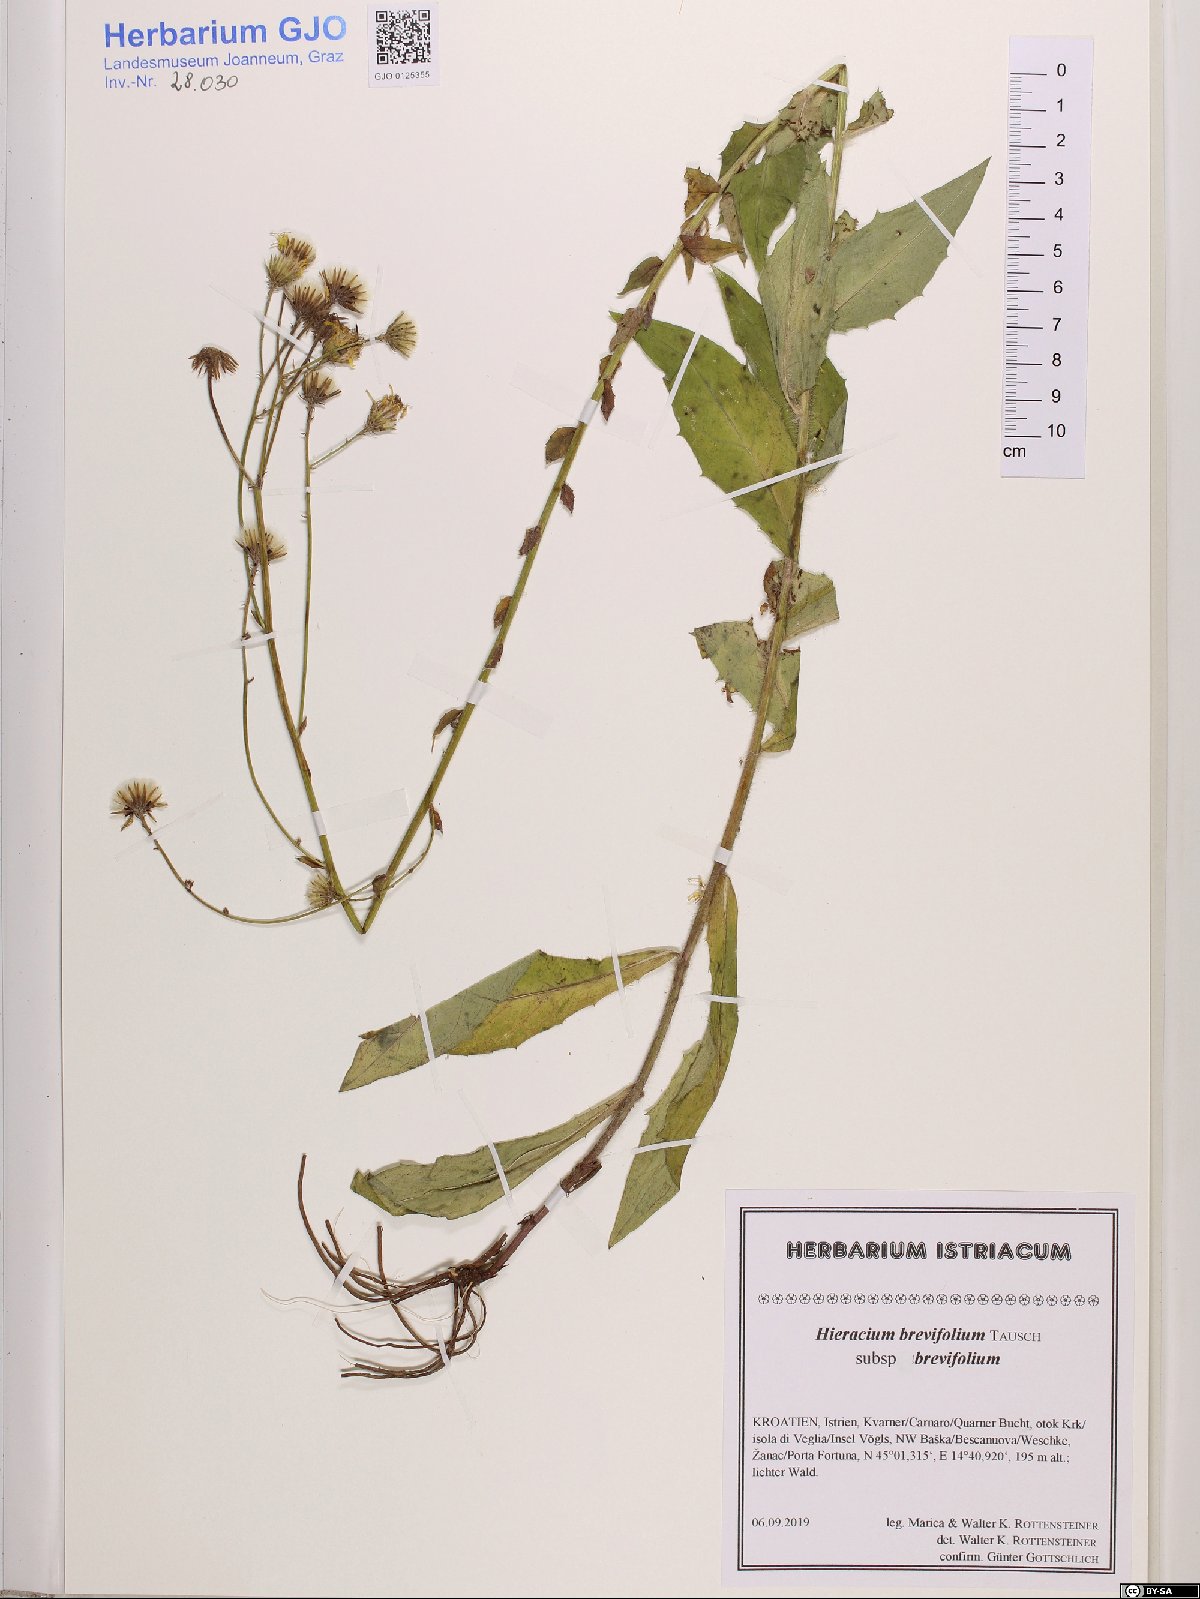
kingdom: Plantae
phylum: Tracheophyta
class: Magnoliopsida
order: Asterales
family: Asteraceae
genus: Hieracium
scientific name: Hieracium brevifolium
